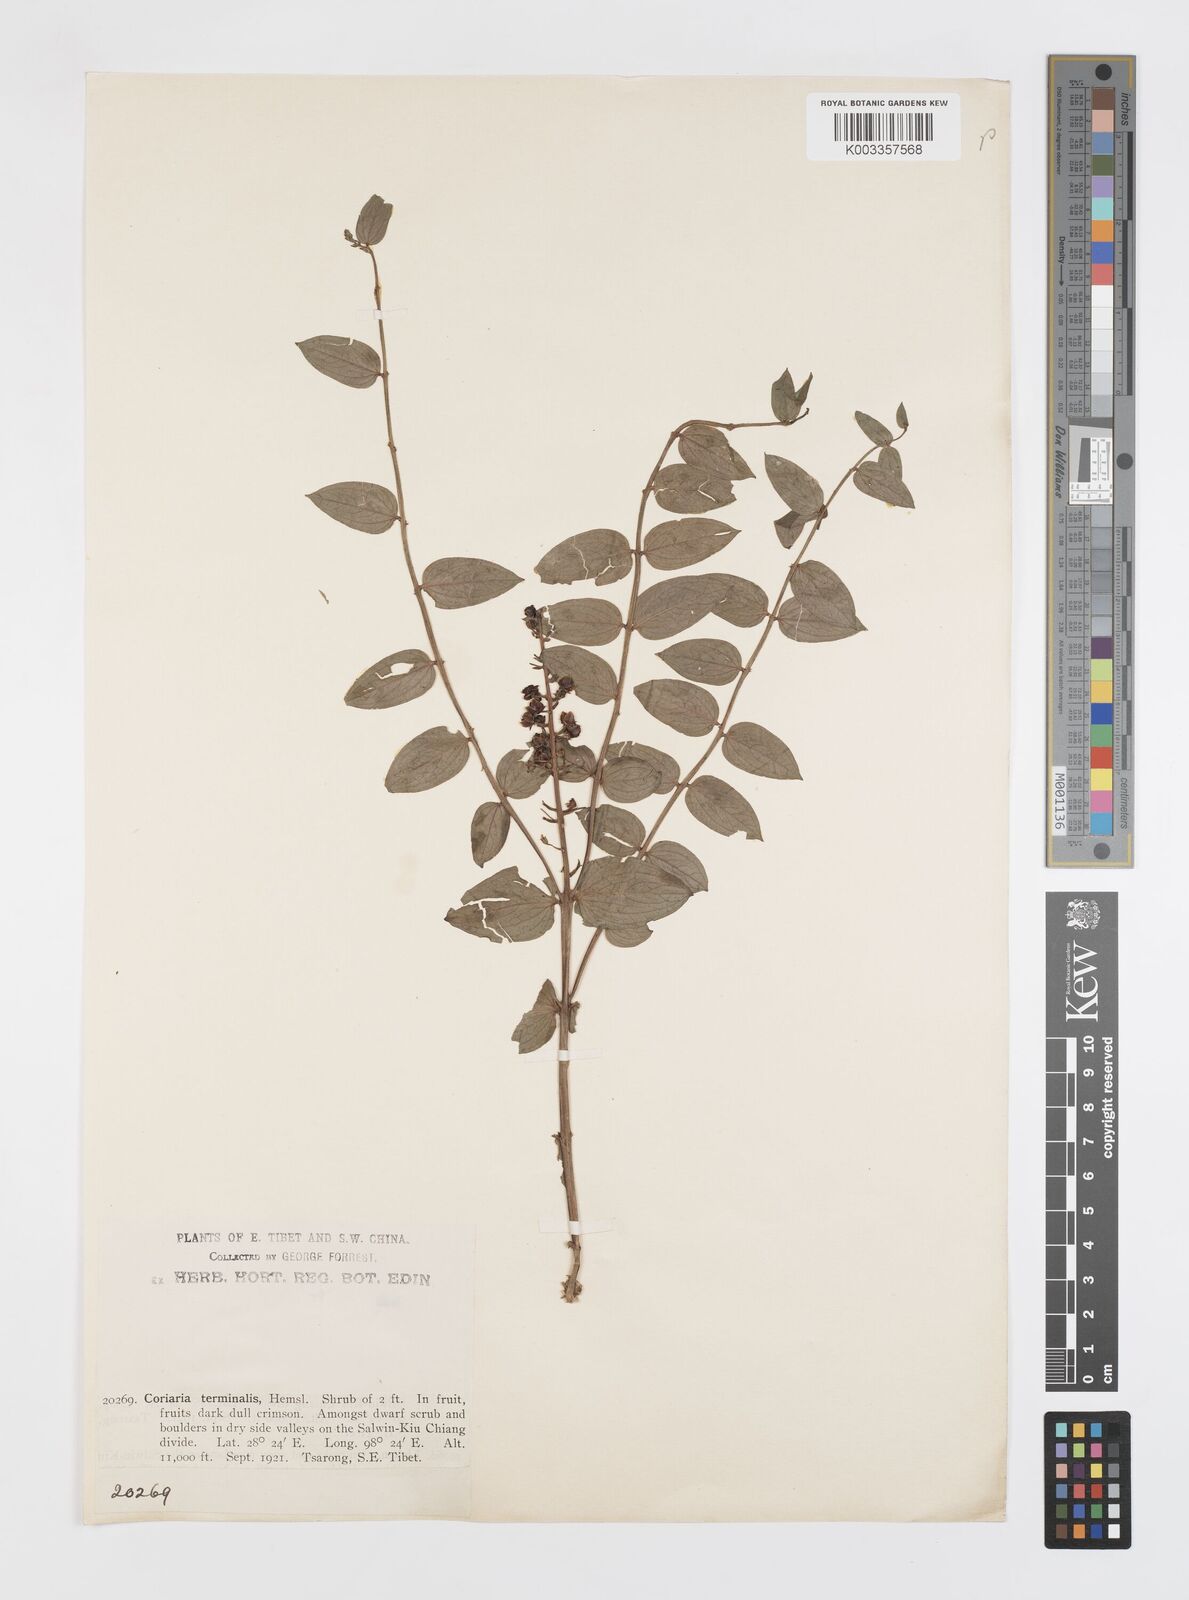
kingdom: Plantae
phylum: Tracheophyta
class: Magnoliopsida
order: Cucurbitales
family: Coriariaceae
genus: Coriaria
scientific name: Coriaria terminalis
